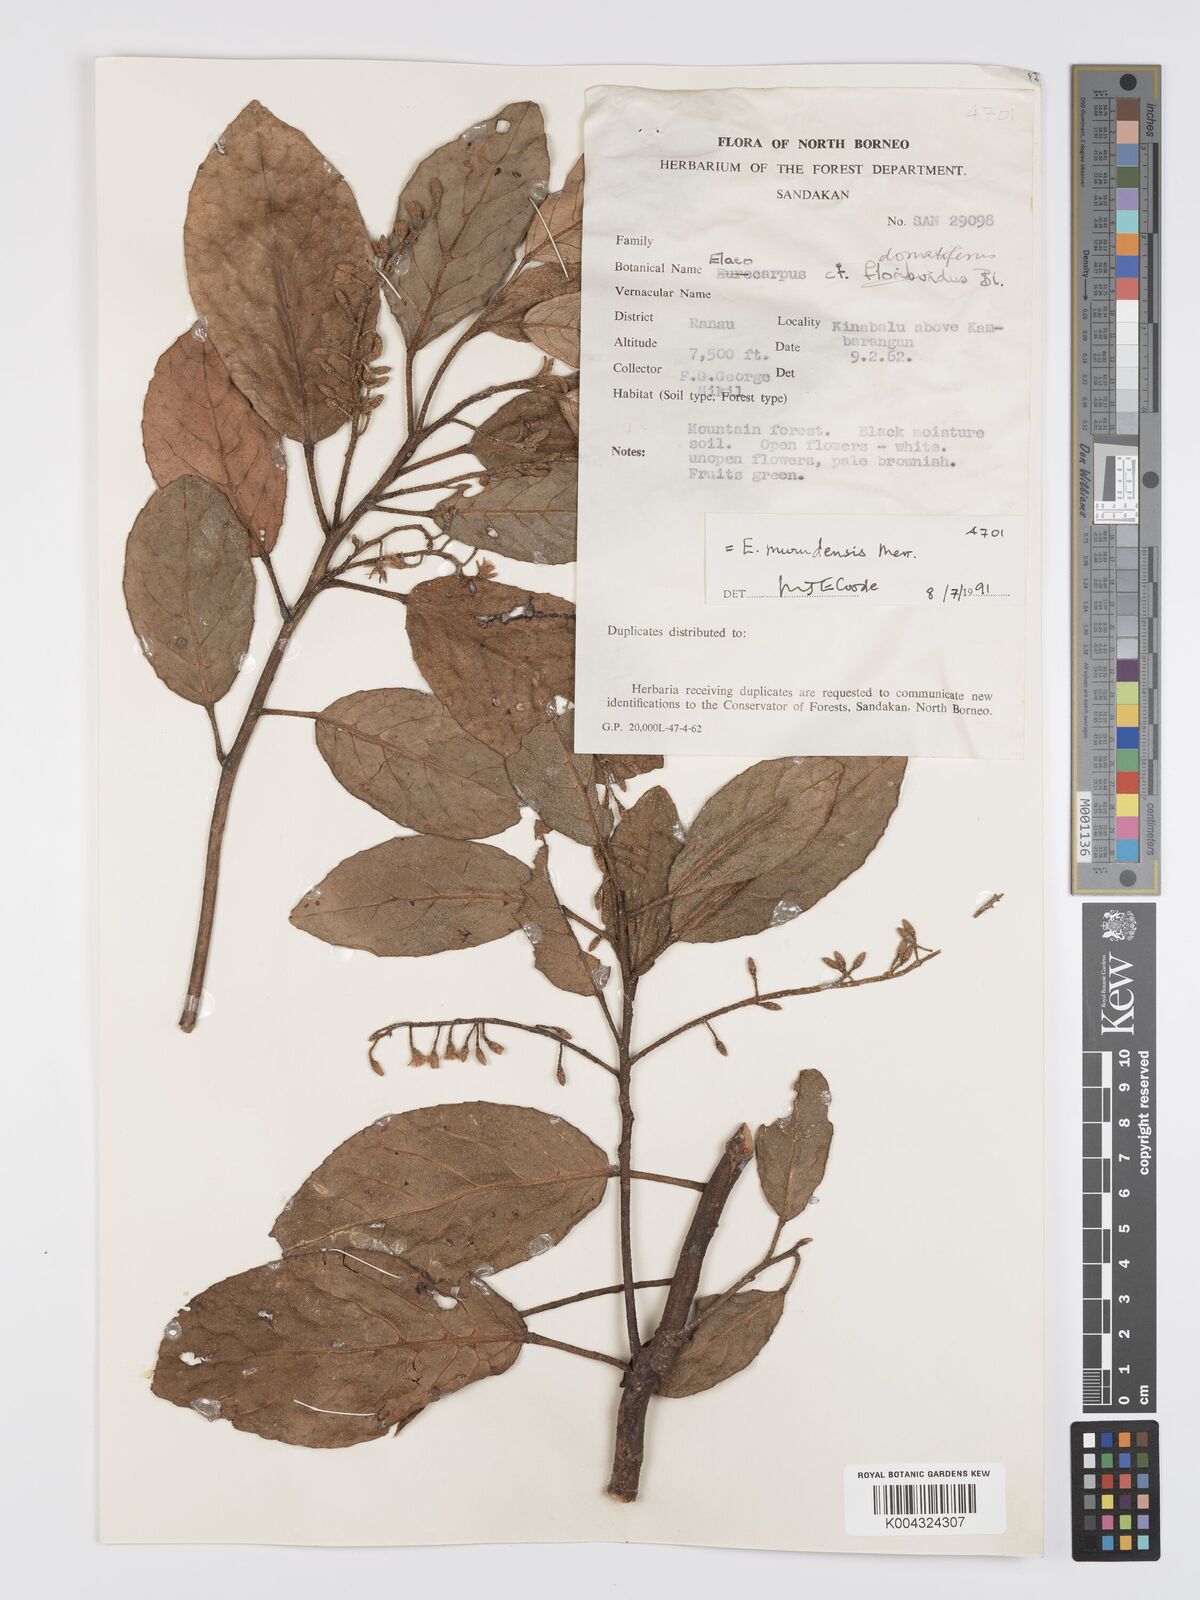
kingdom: Plantae
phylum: Tracheophyta
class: Magnoliopsida
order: Oxalidales
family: Elaeocarpaceae
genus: Elaeocarpus
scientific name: Elaeocarpus murudensis
